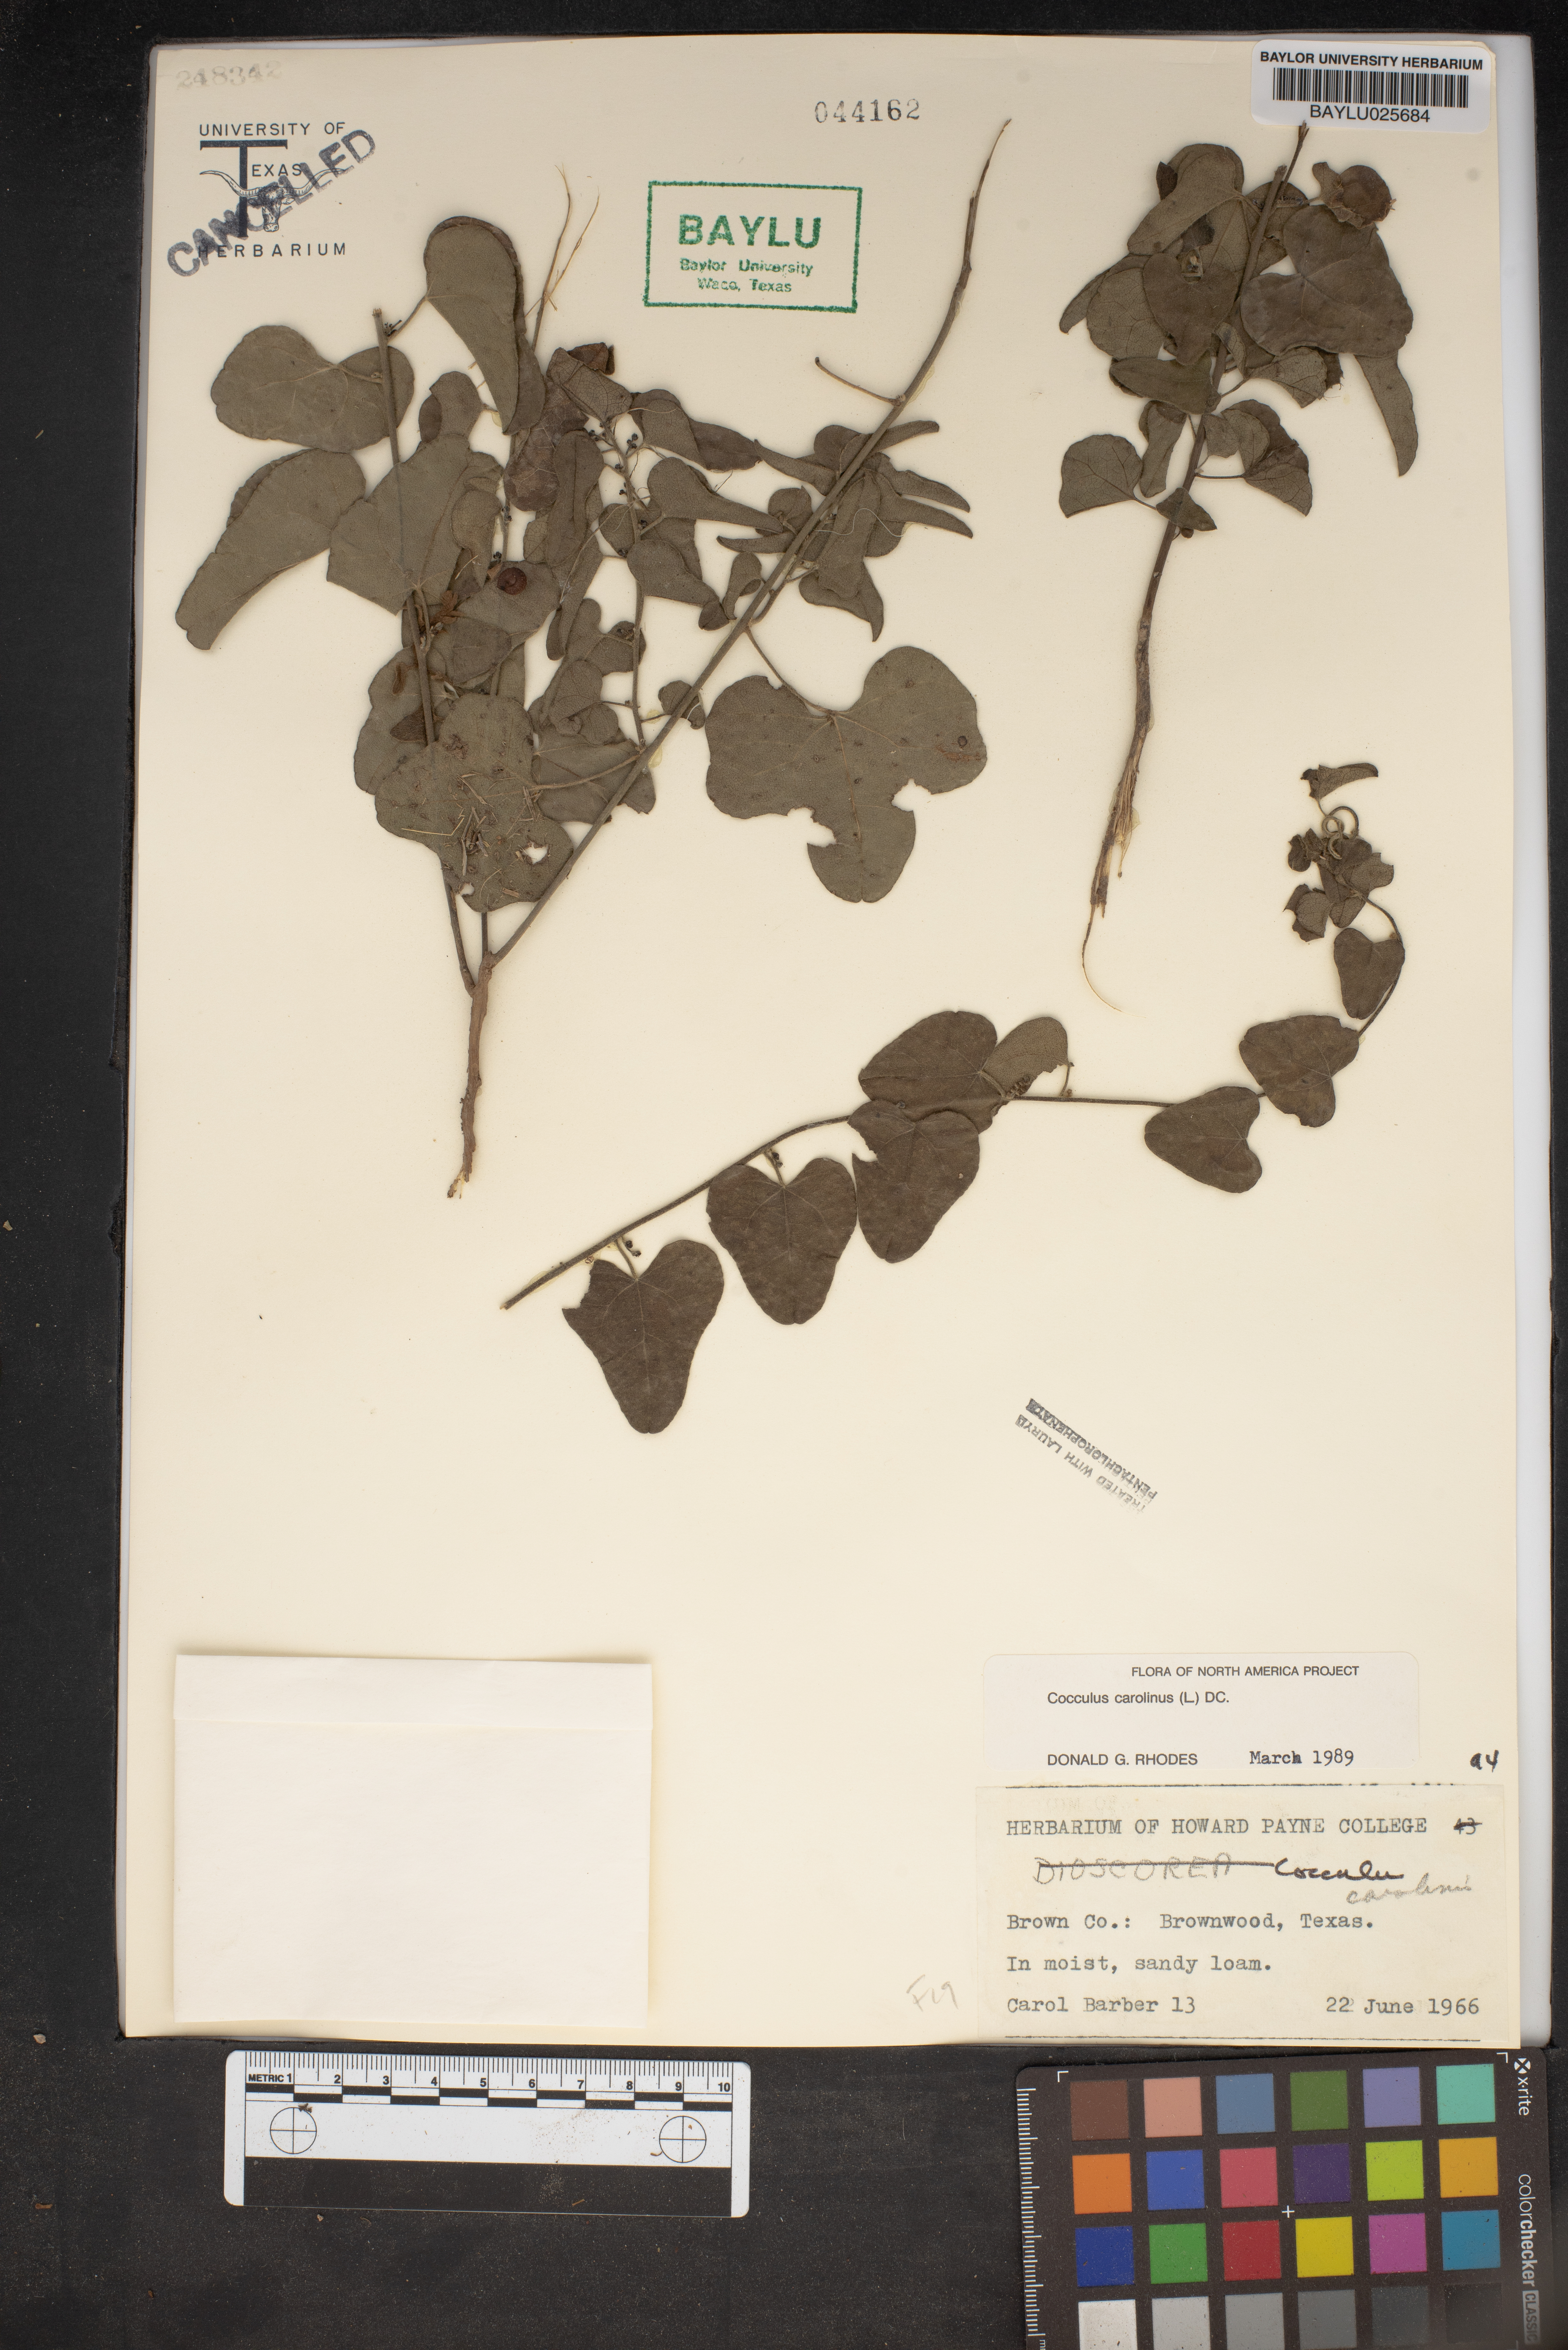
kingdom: Plantae
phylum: Tracheophyta
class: Magnoliopsida
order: Ranunculales
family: Menispermaceae
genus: Cocculus
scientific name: Cocculus carolinus
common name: Carolina moonseed
